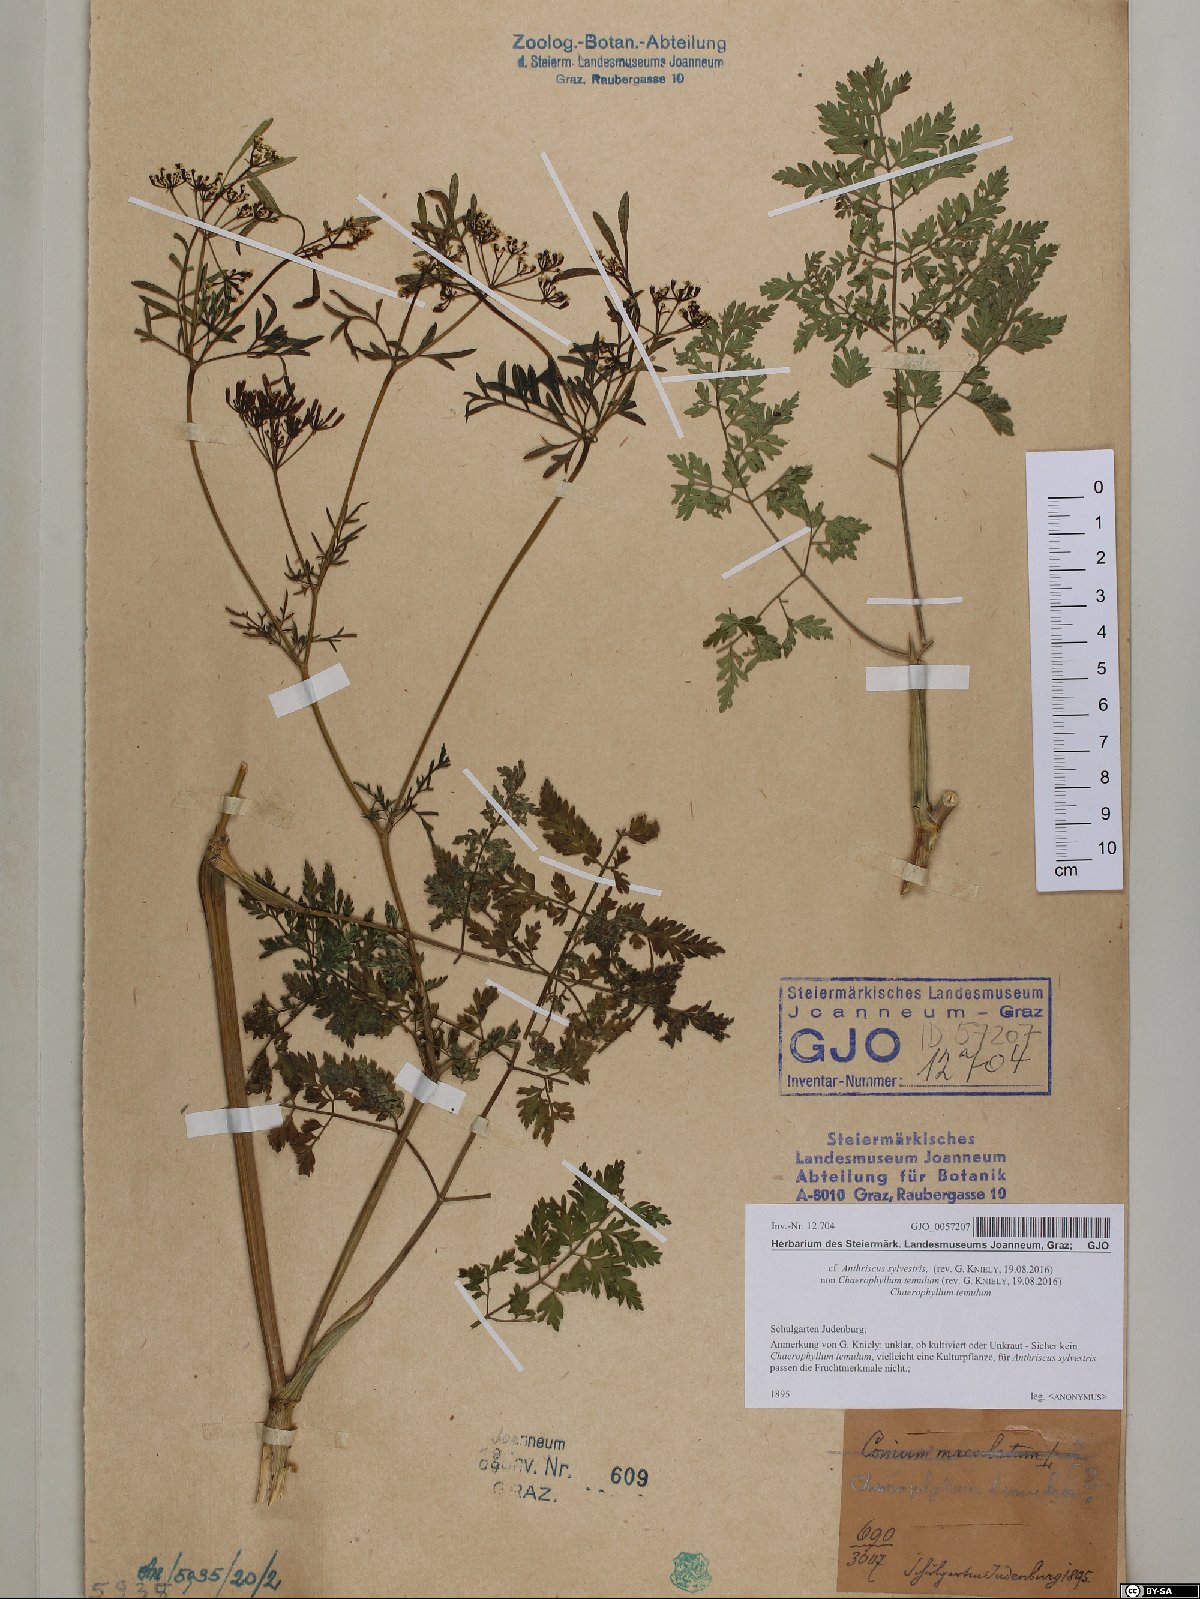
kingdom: Plantae
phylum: Tracheophyta
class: Magnoliopsida
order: Apiales
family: Apiaceae
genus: Anthriscus
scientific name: Anthriscus sylvestris
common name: Cow parsley
